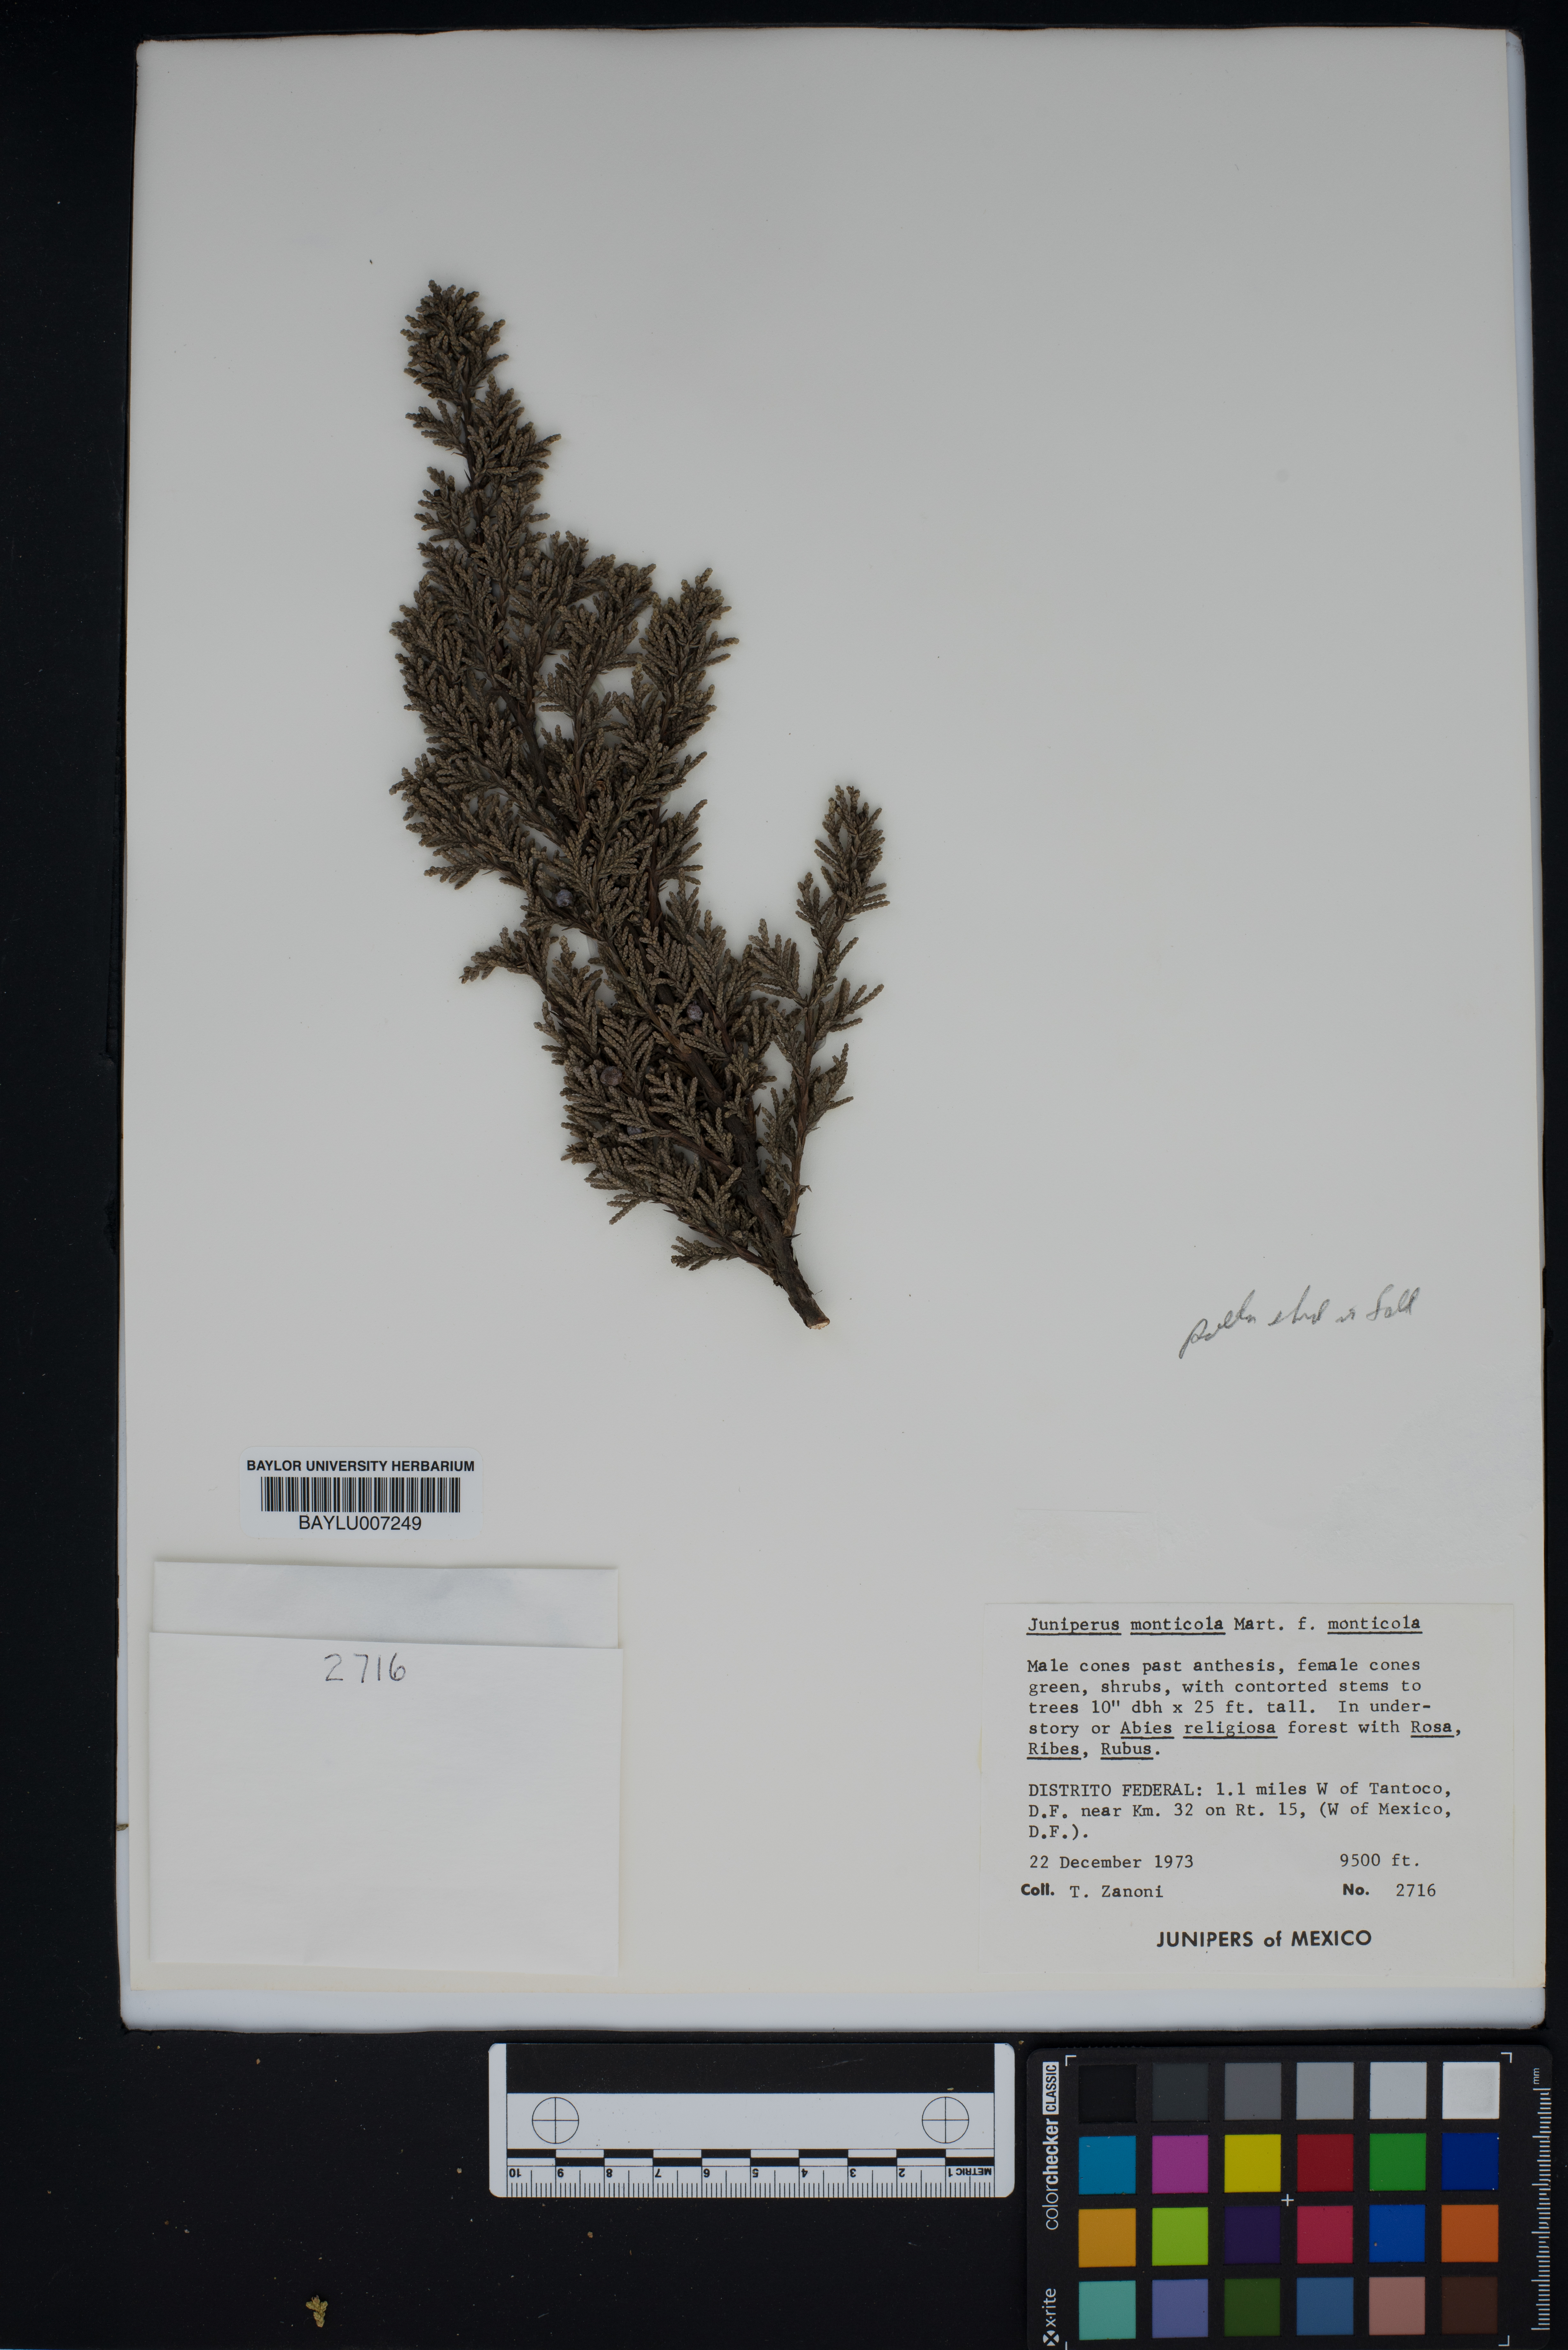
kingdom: Plantae
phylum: Tracheophyta
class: Pinopsida
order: Pinales
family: Cupressaceae
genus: Juniperus
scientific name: Juniperus monticola
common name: Mexican juniper
